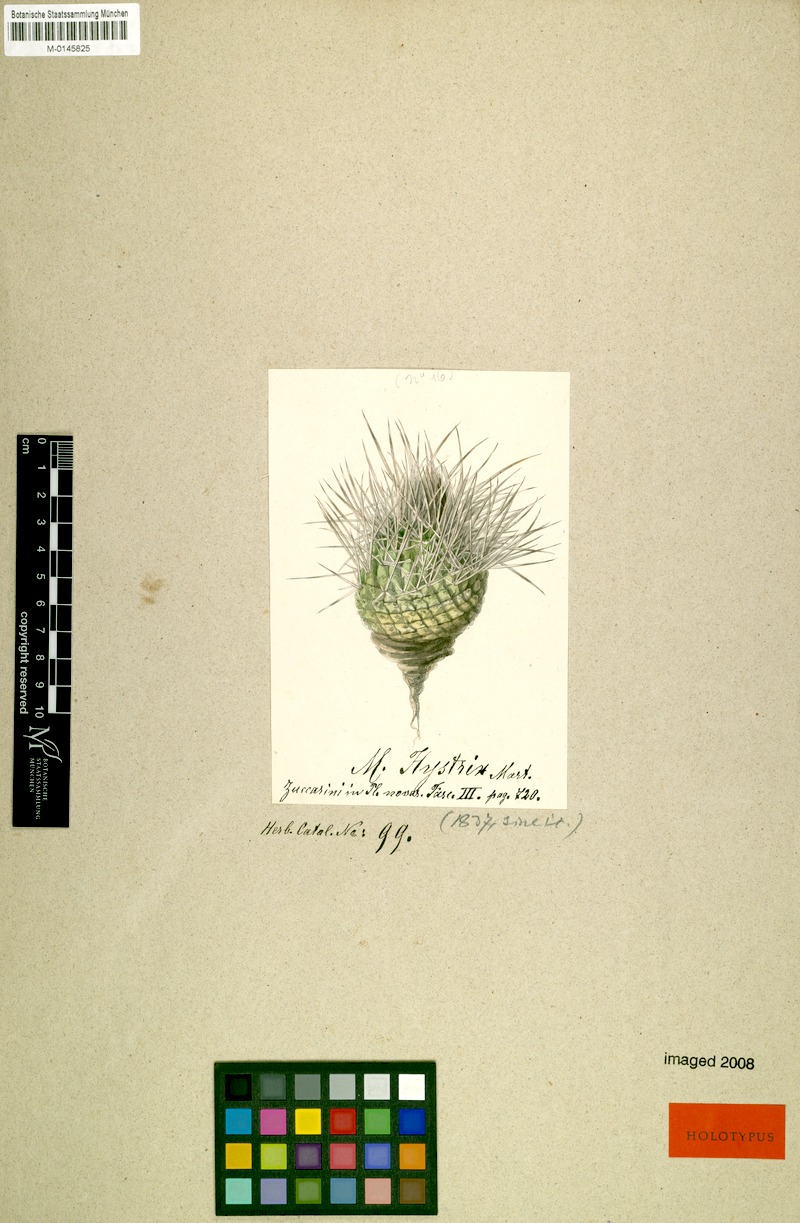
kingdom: Plantae
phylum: Tracheophyta
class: Magnoliopsida
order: Caryophyllales
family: Cactaceae
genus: Stenocereus
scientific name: Stenocereus heptagonus
